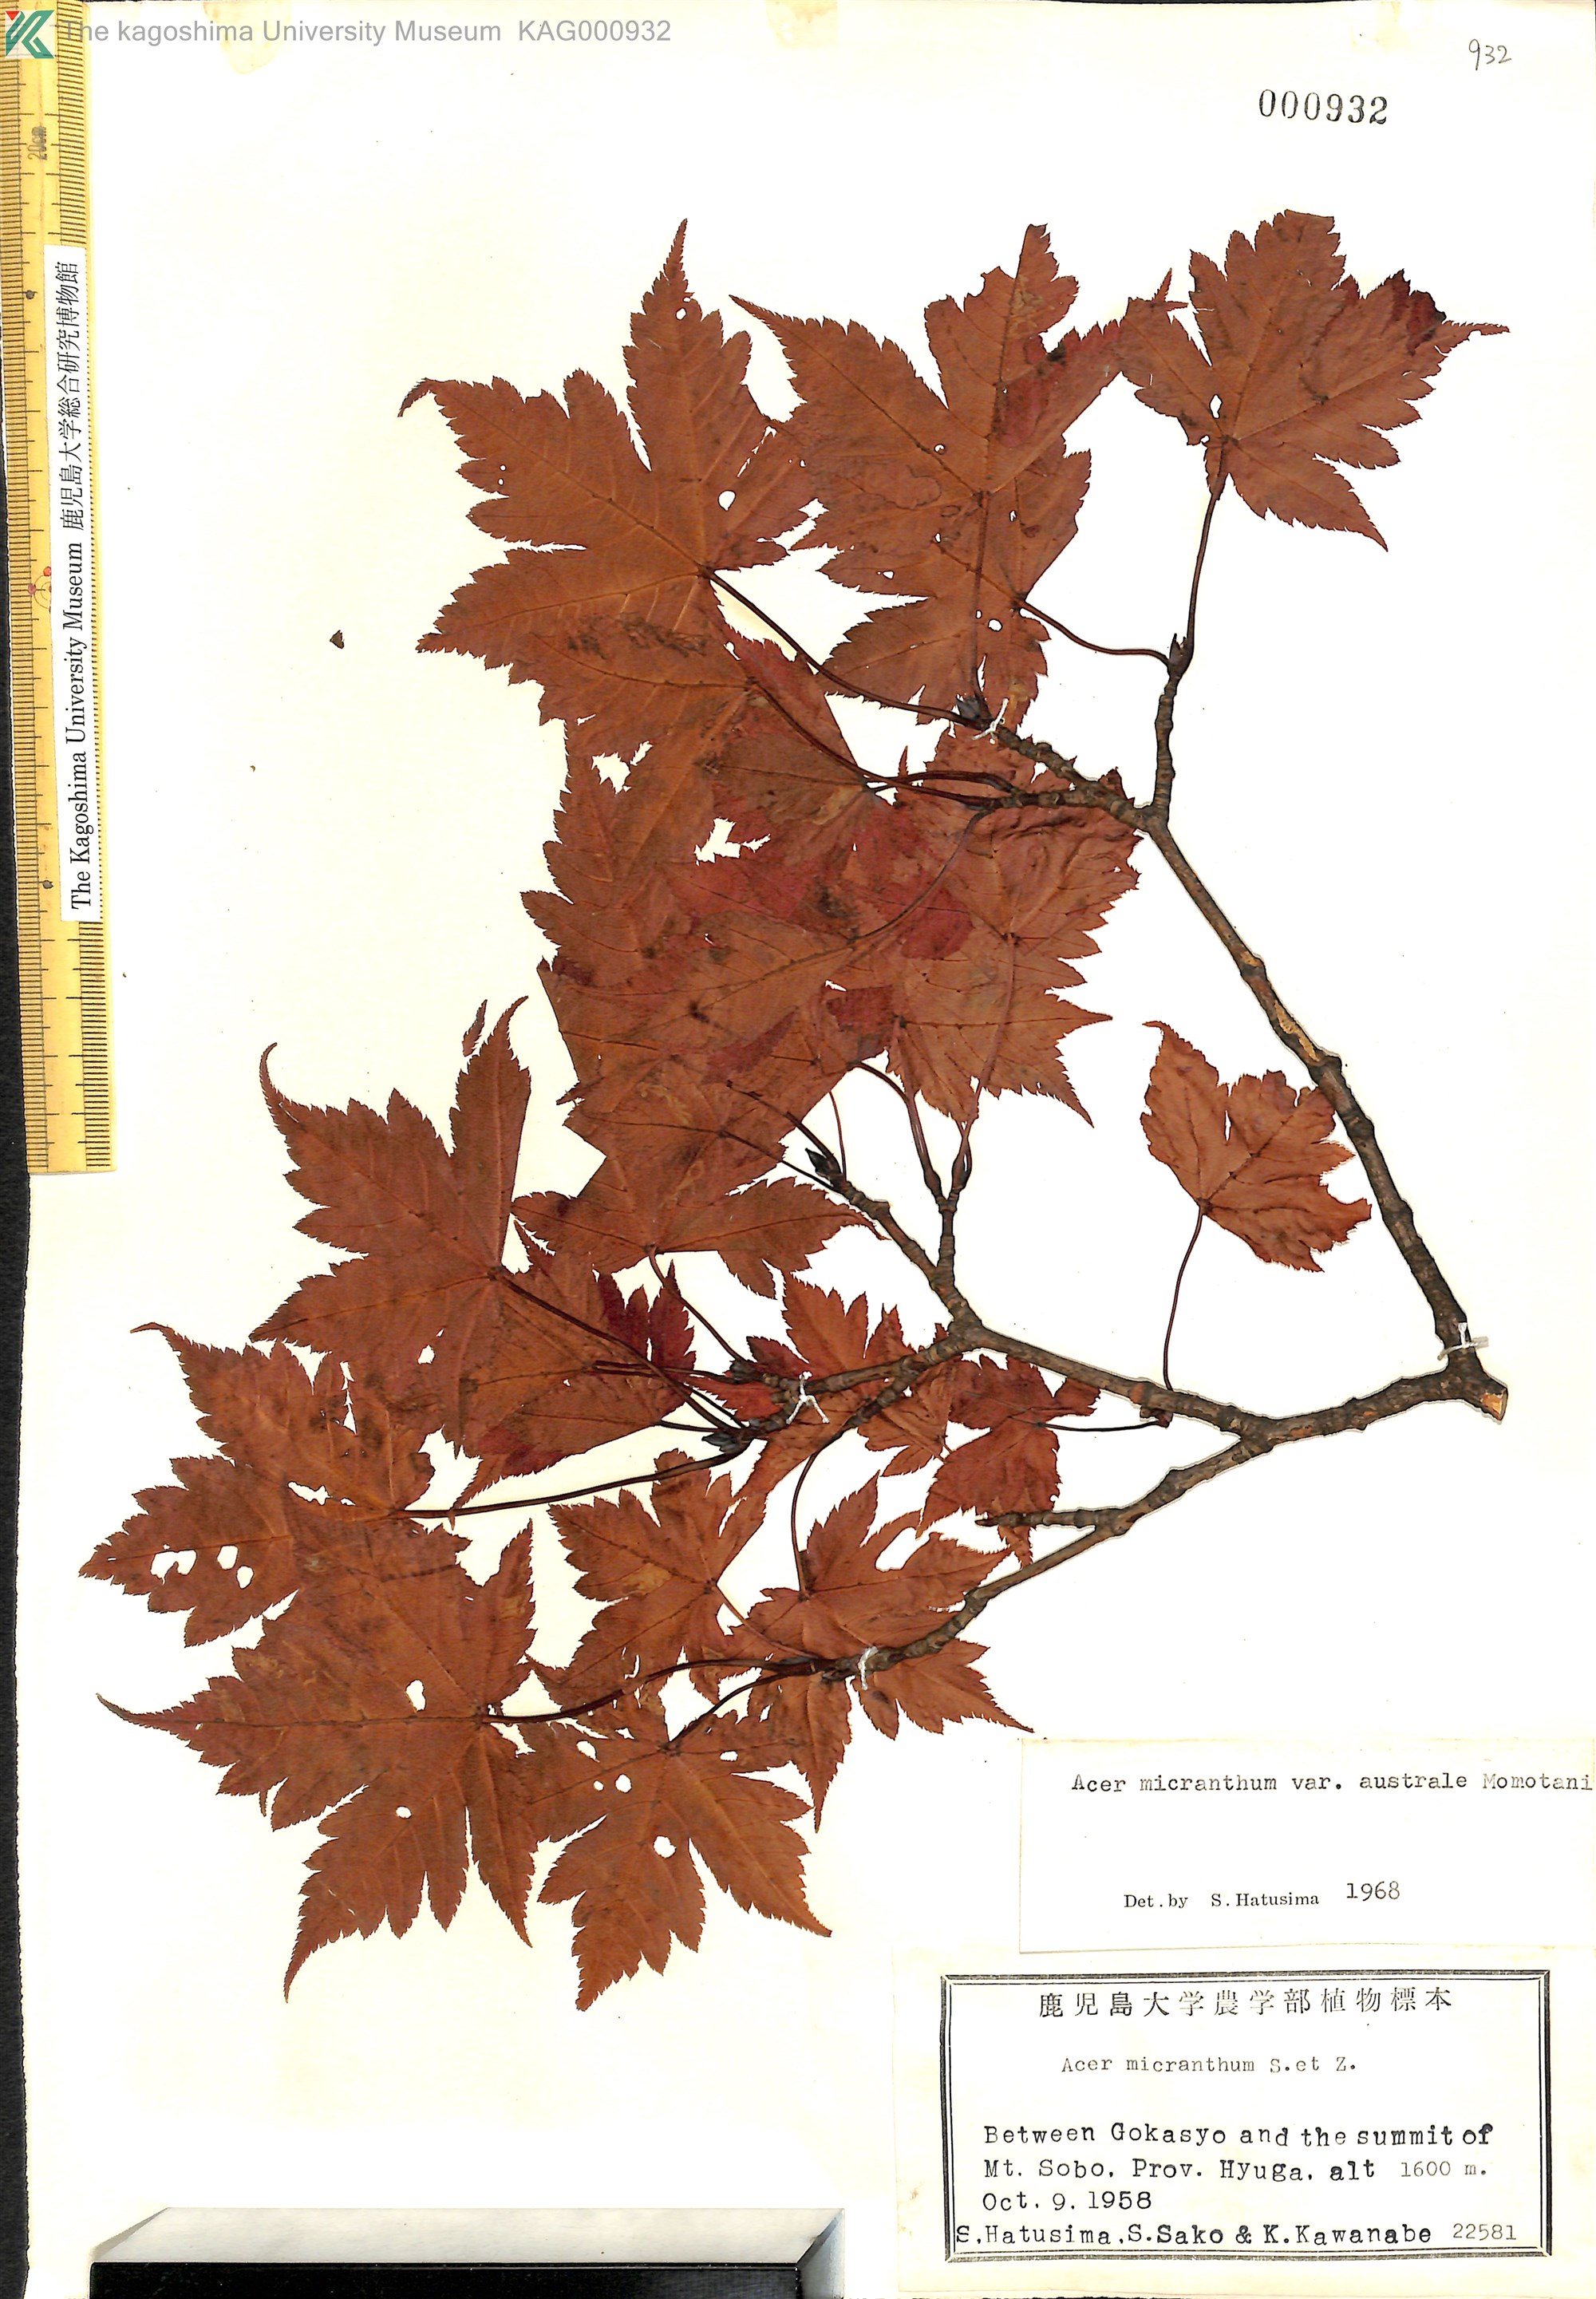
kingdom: Plantae
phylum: Tracheophyta
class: Magnoliopsida
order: Sapindales
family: Sapindaceae
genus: Acer
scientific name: Acer micranthum
